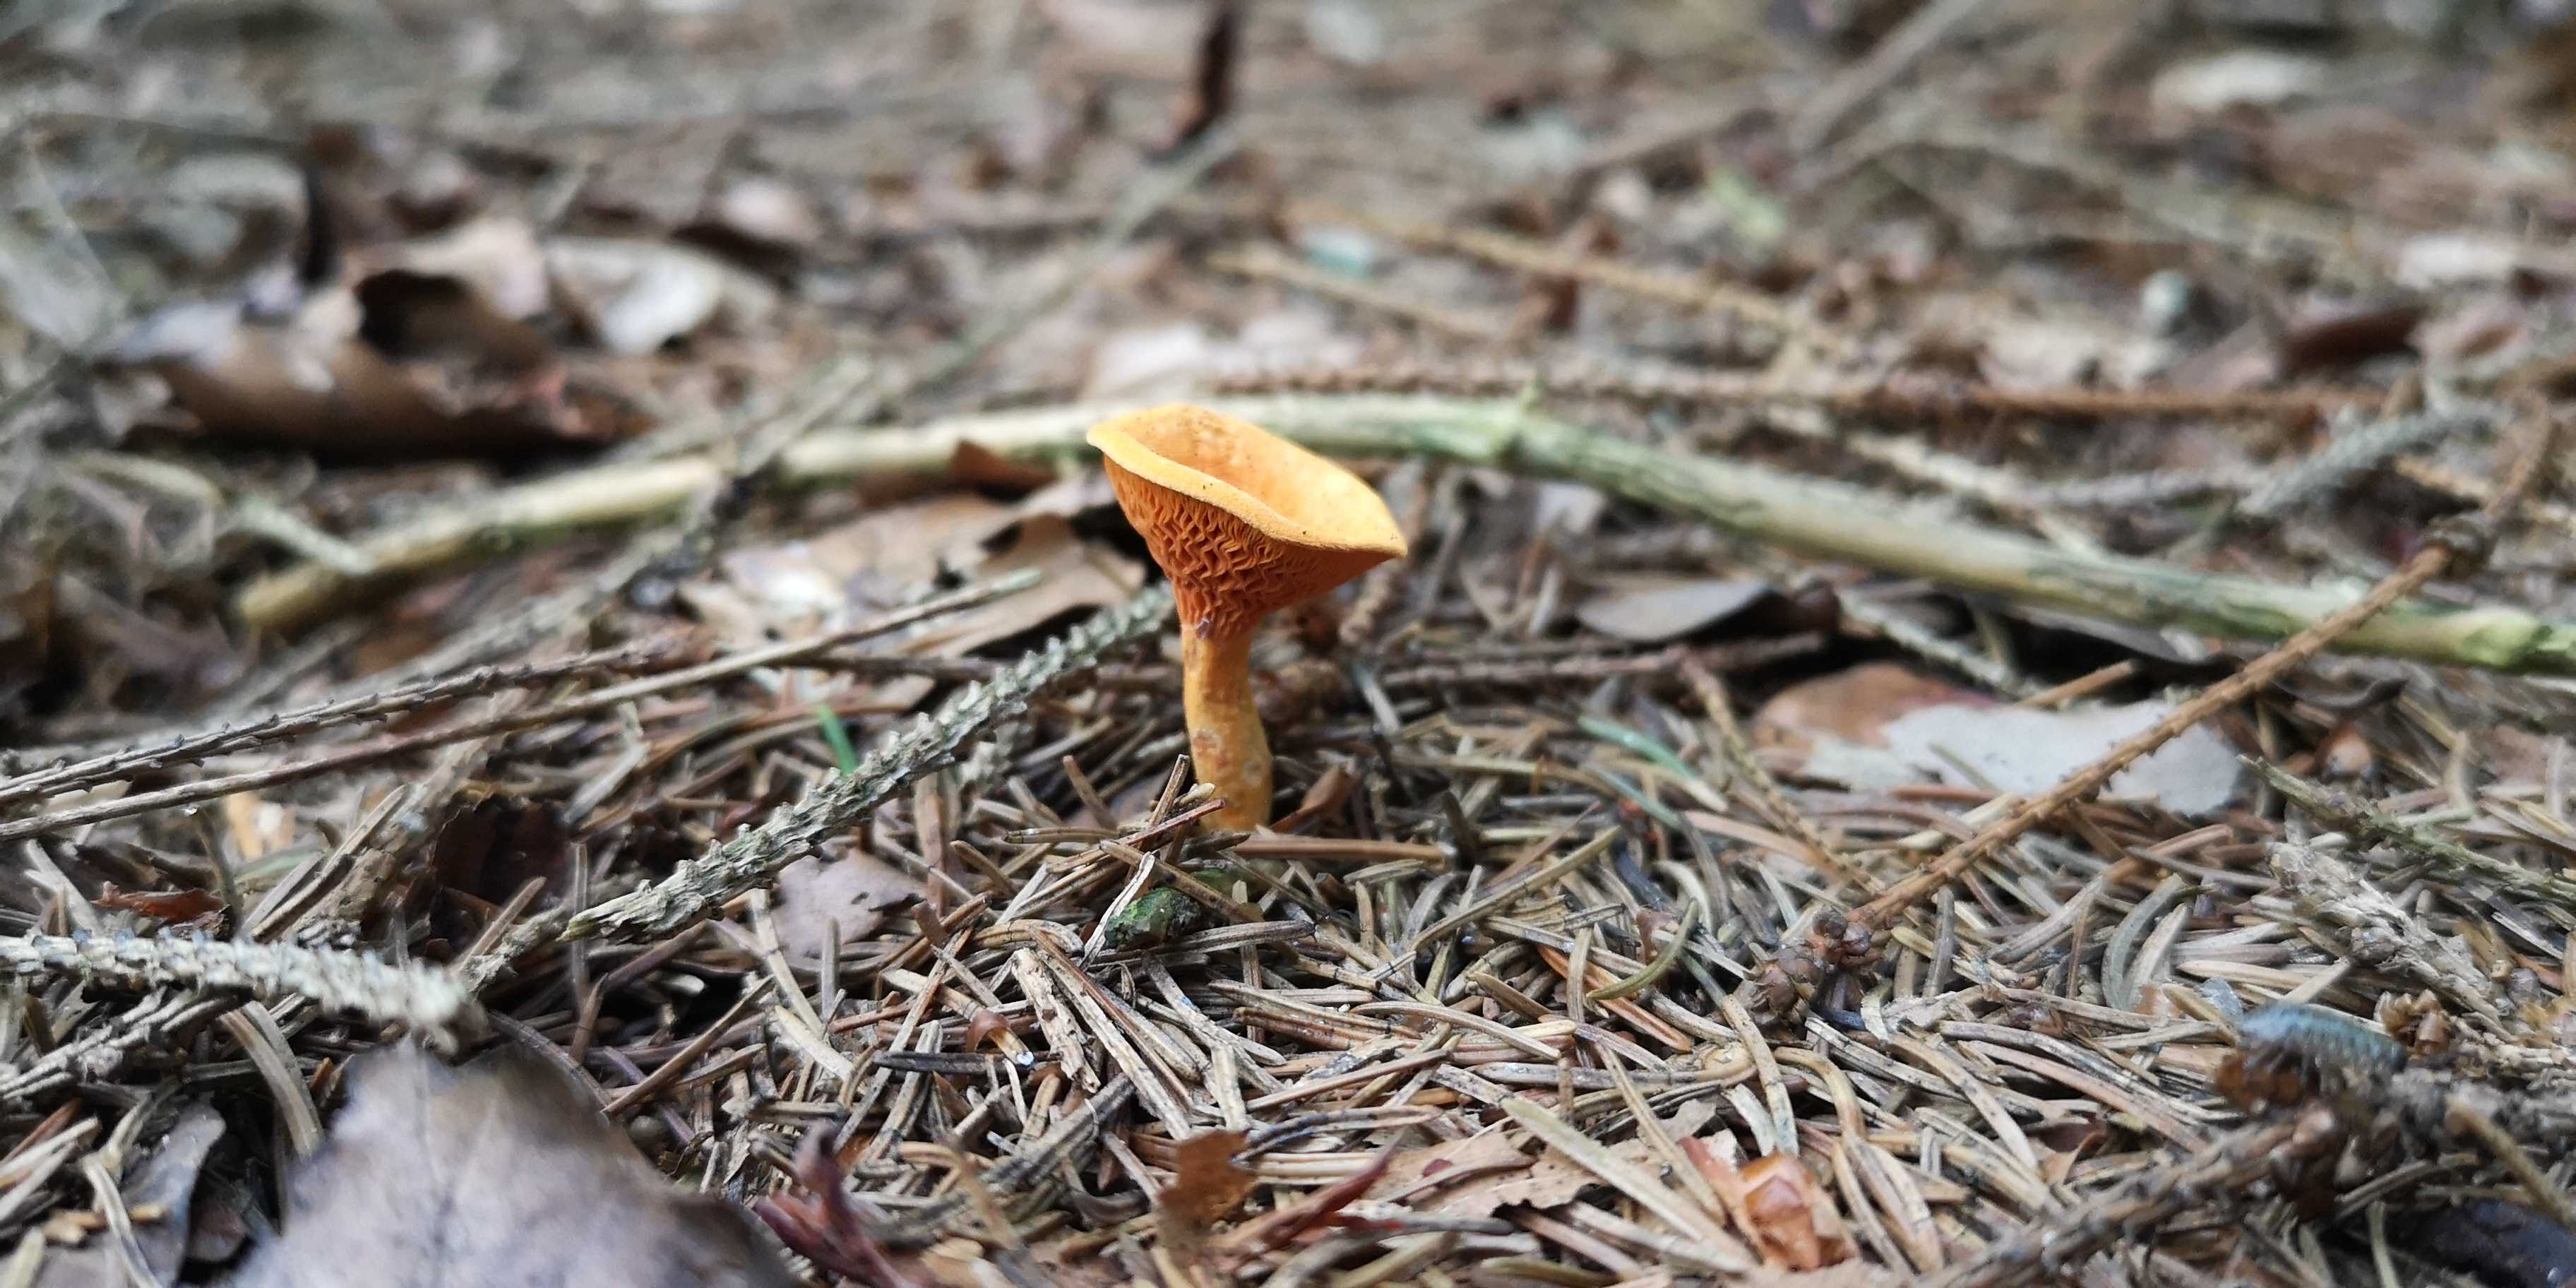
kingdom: Fungi
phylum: Basidiomycota
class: Agaricomycetes
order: Boletales
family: Hygrophoropsidaceae
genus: Hygrophoropsis
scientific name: Hygrophoropsis aurantiaca
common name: almindelig orangekantarel
